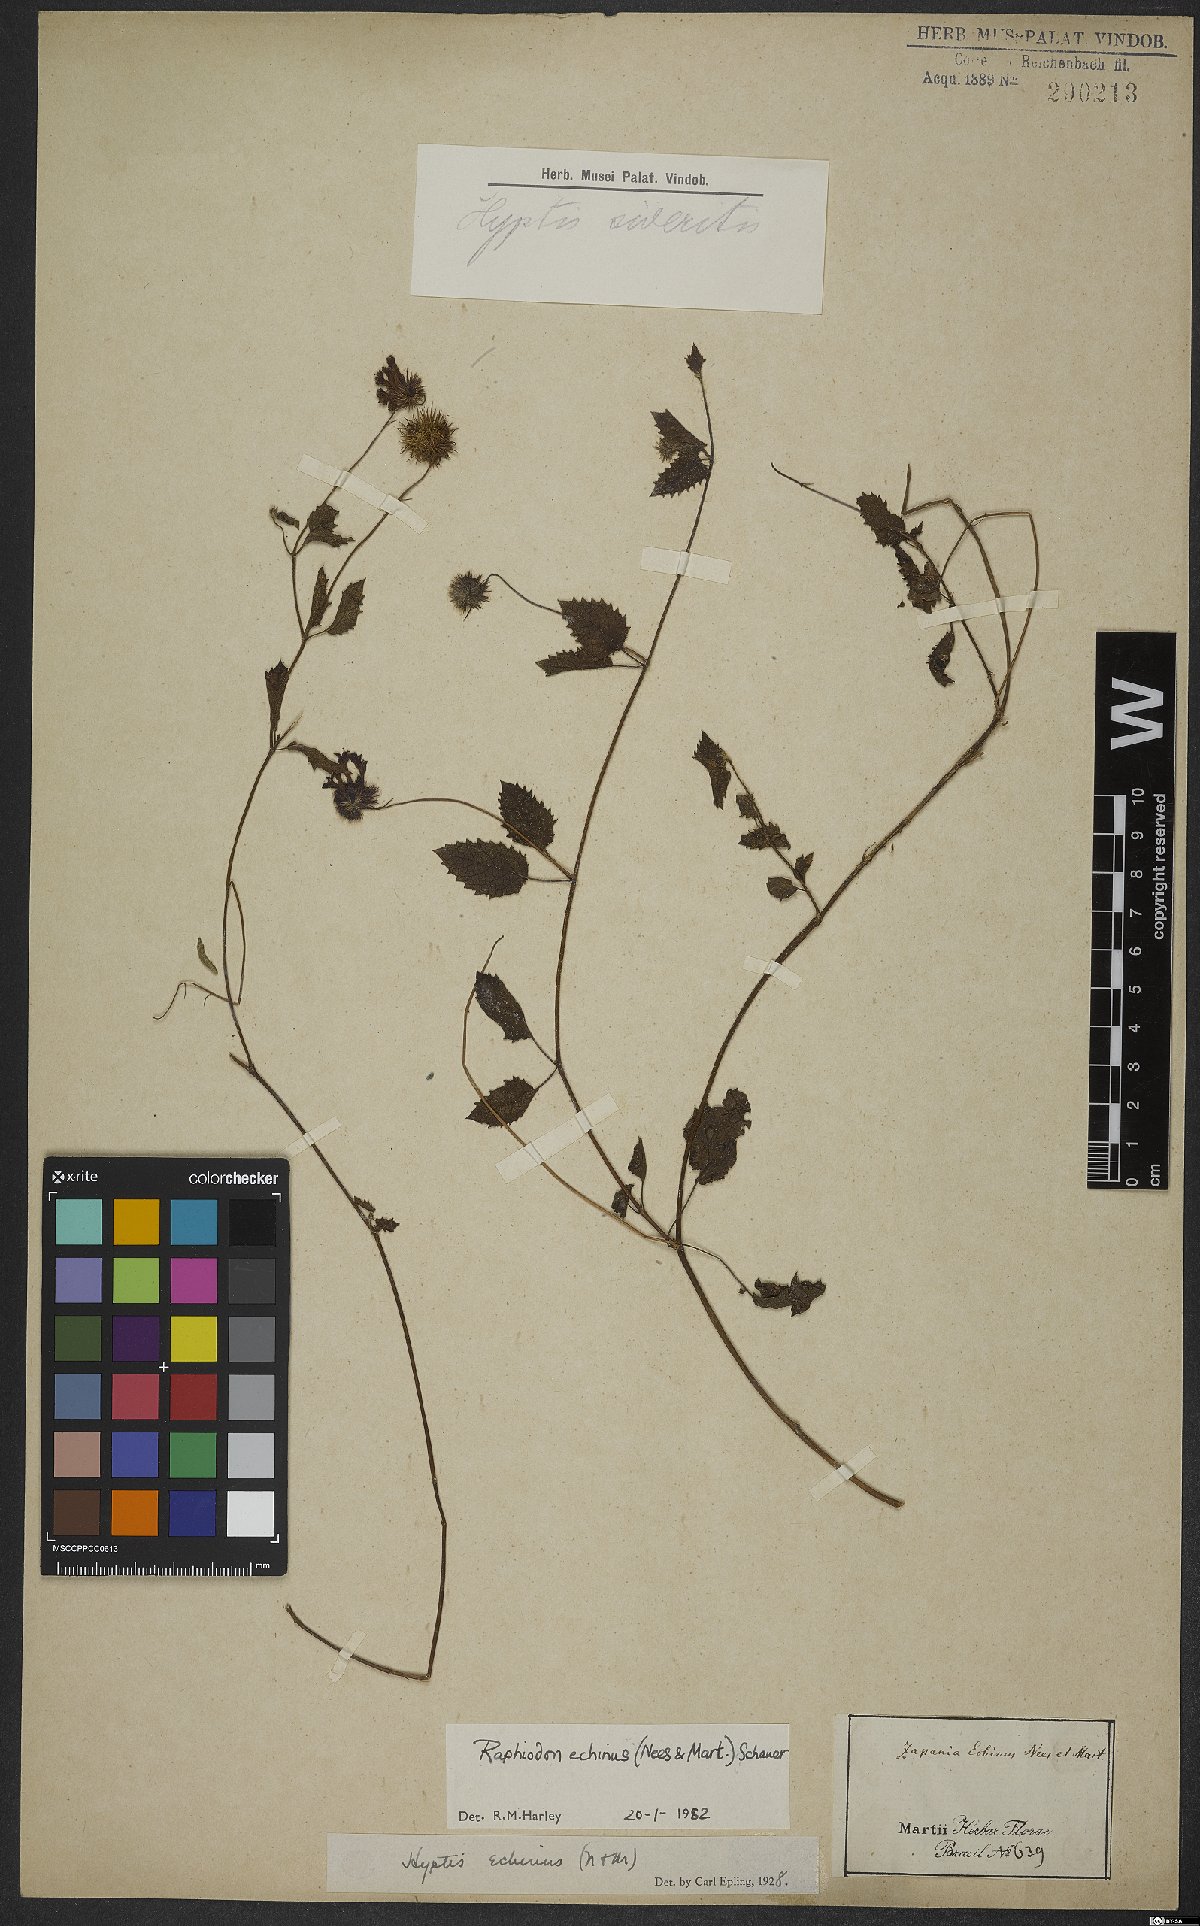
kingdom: Plantae
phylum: Tracheophyta
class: Magnoliopsida
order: Lamiales
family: Lamiaceae
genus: Rhaphiodon
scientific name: Rhaphiodon echinus
